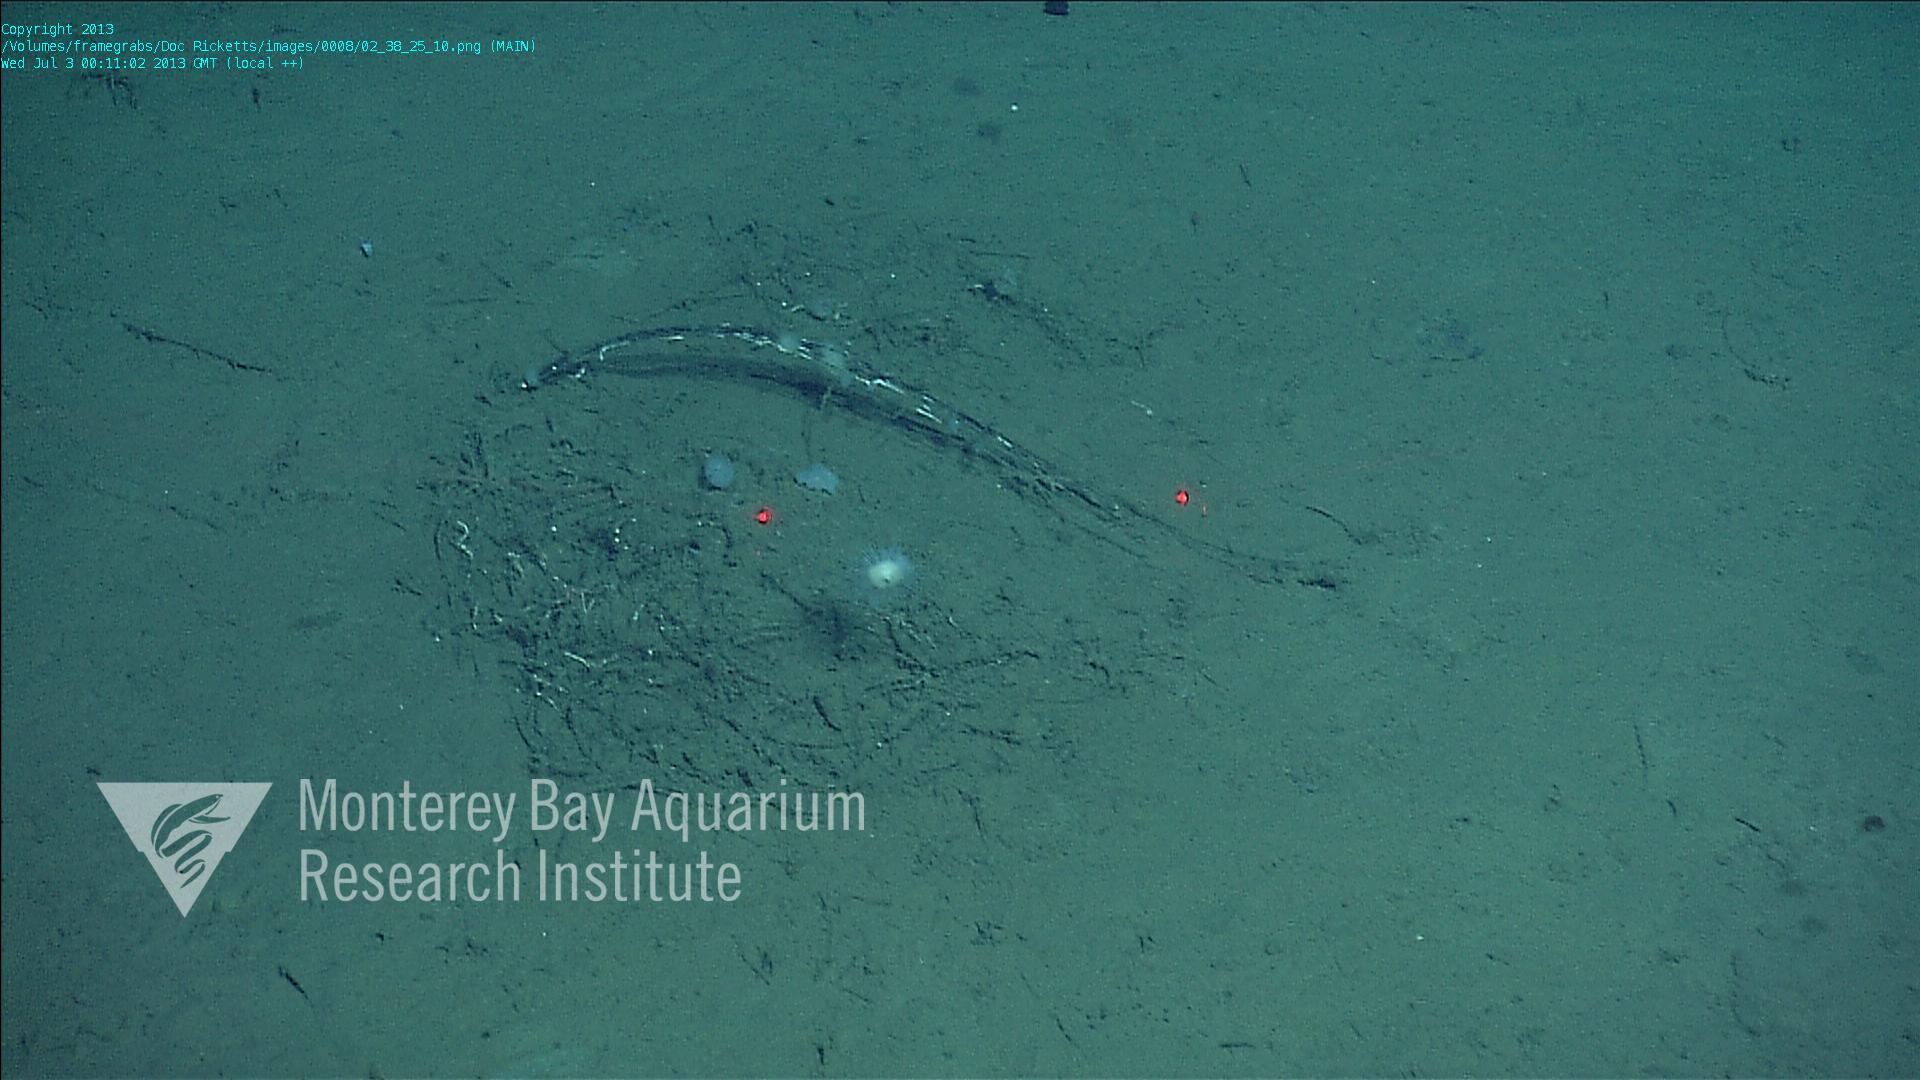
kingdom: Animalia
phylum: Porifera
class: Demospongiae
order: Poecilosclerida
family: Cladorhizidae
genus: Cladorhiza
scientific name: Cladorhiza
